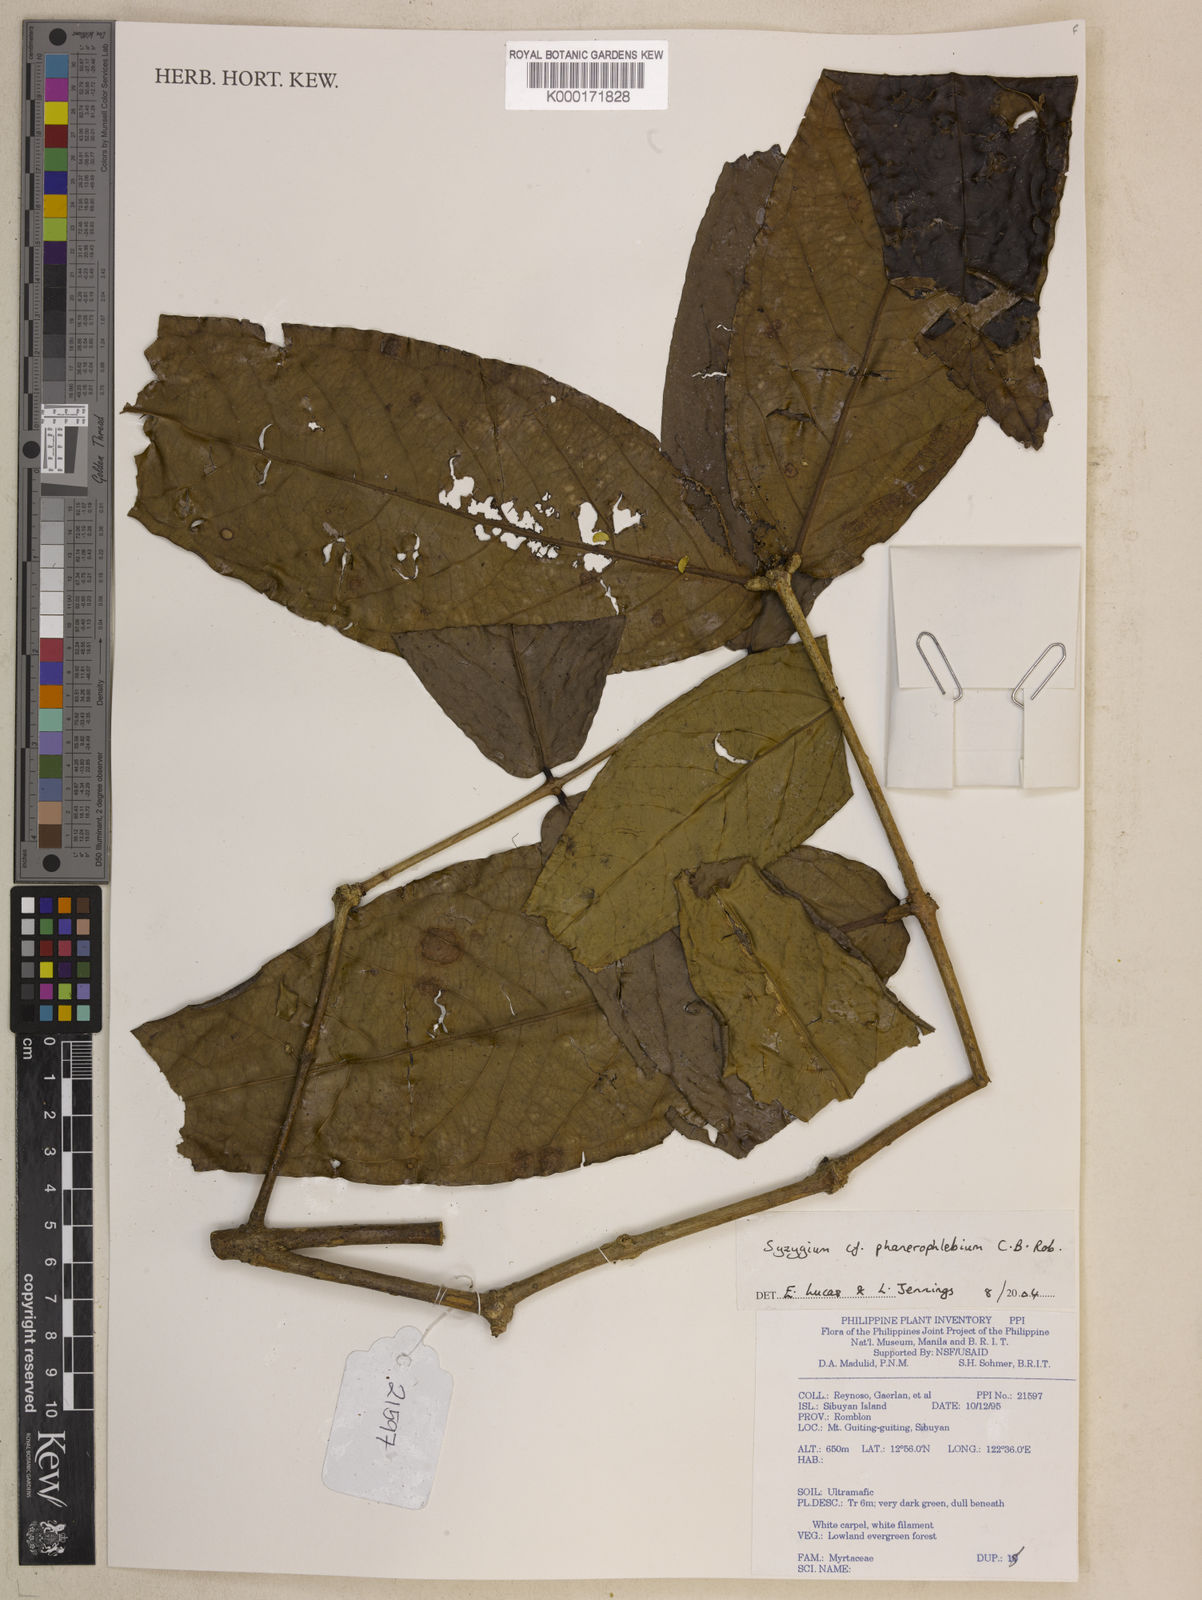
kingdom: Plantae
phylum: Tracheophyta
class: Magnoliopsida
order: Myrtales
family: Myrtaceae
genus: Syzygium
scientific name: Syzygium phanerophlebium
